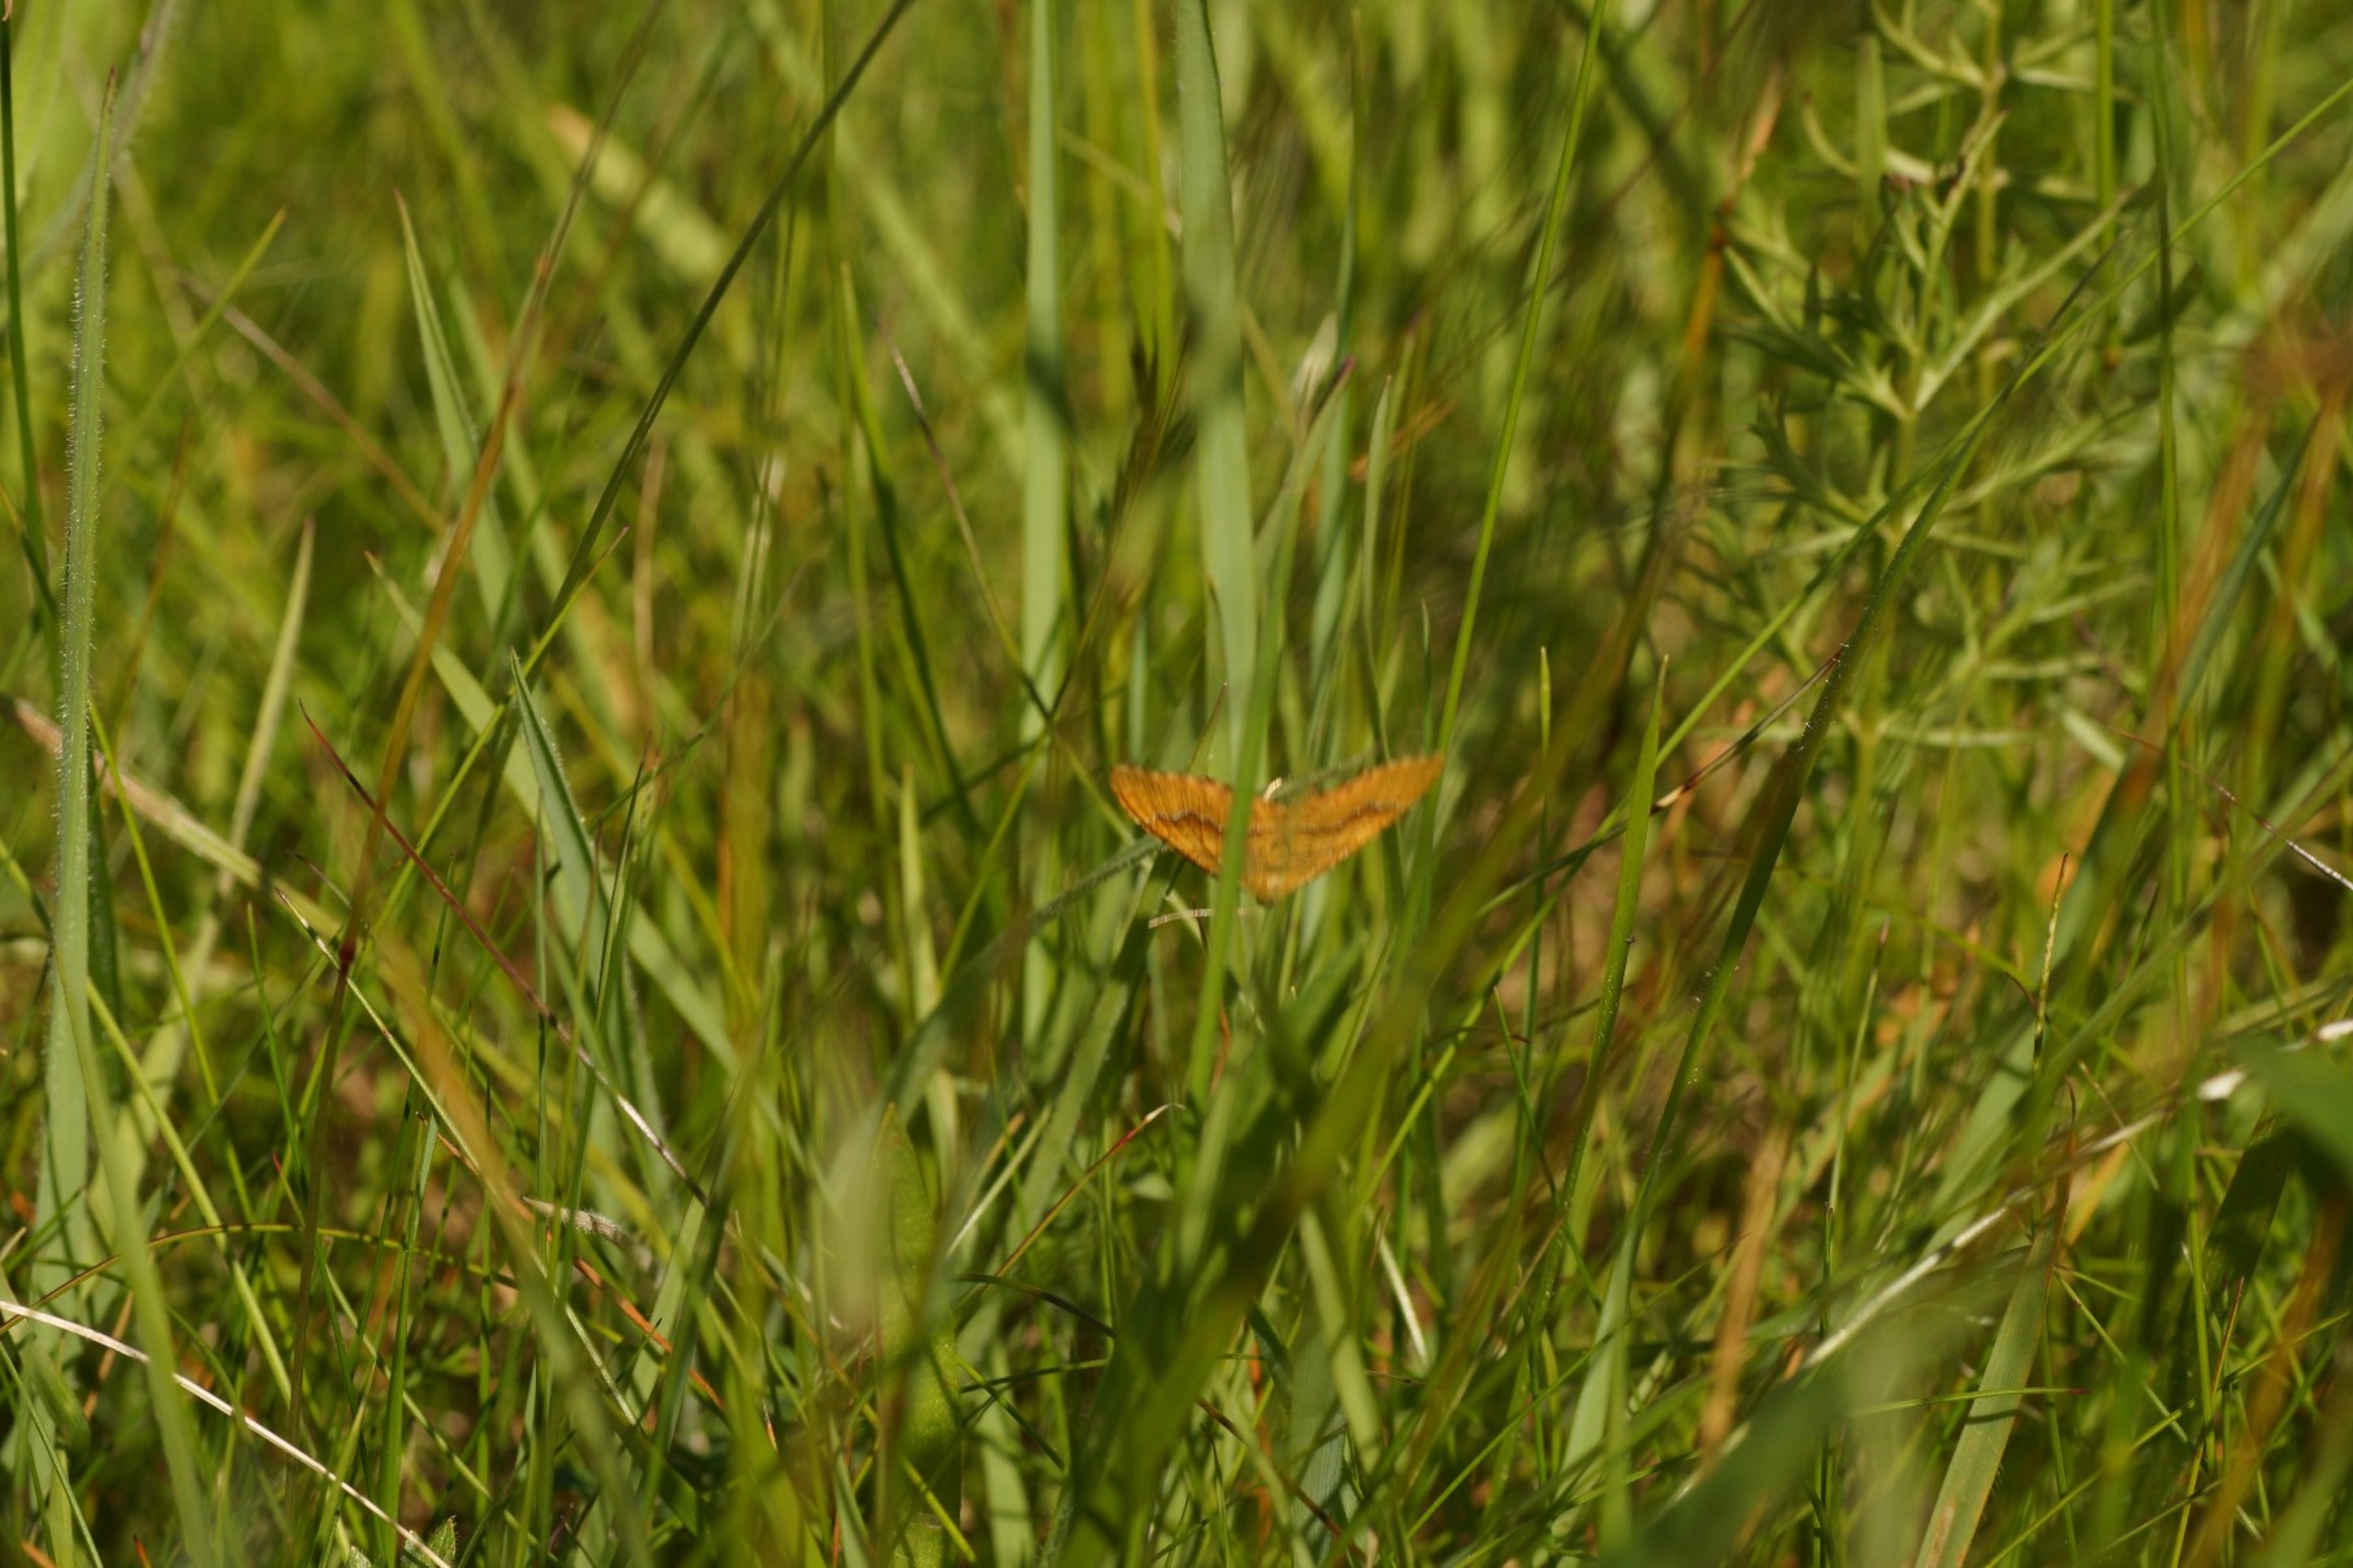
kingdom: Animalia
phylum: Arthropoda
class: Insecta
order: Lepidoptera
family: Geometridae
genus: Camptogramma
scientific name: Camptogramma bilineata
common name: Okkergul bladmåler
